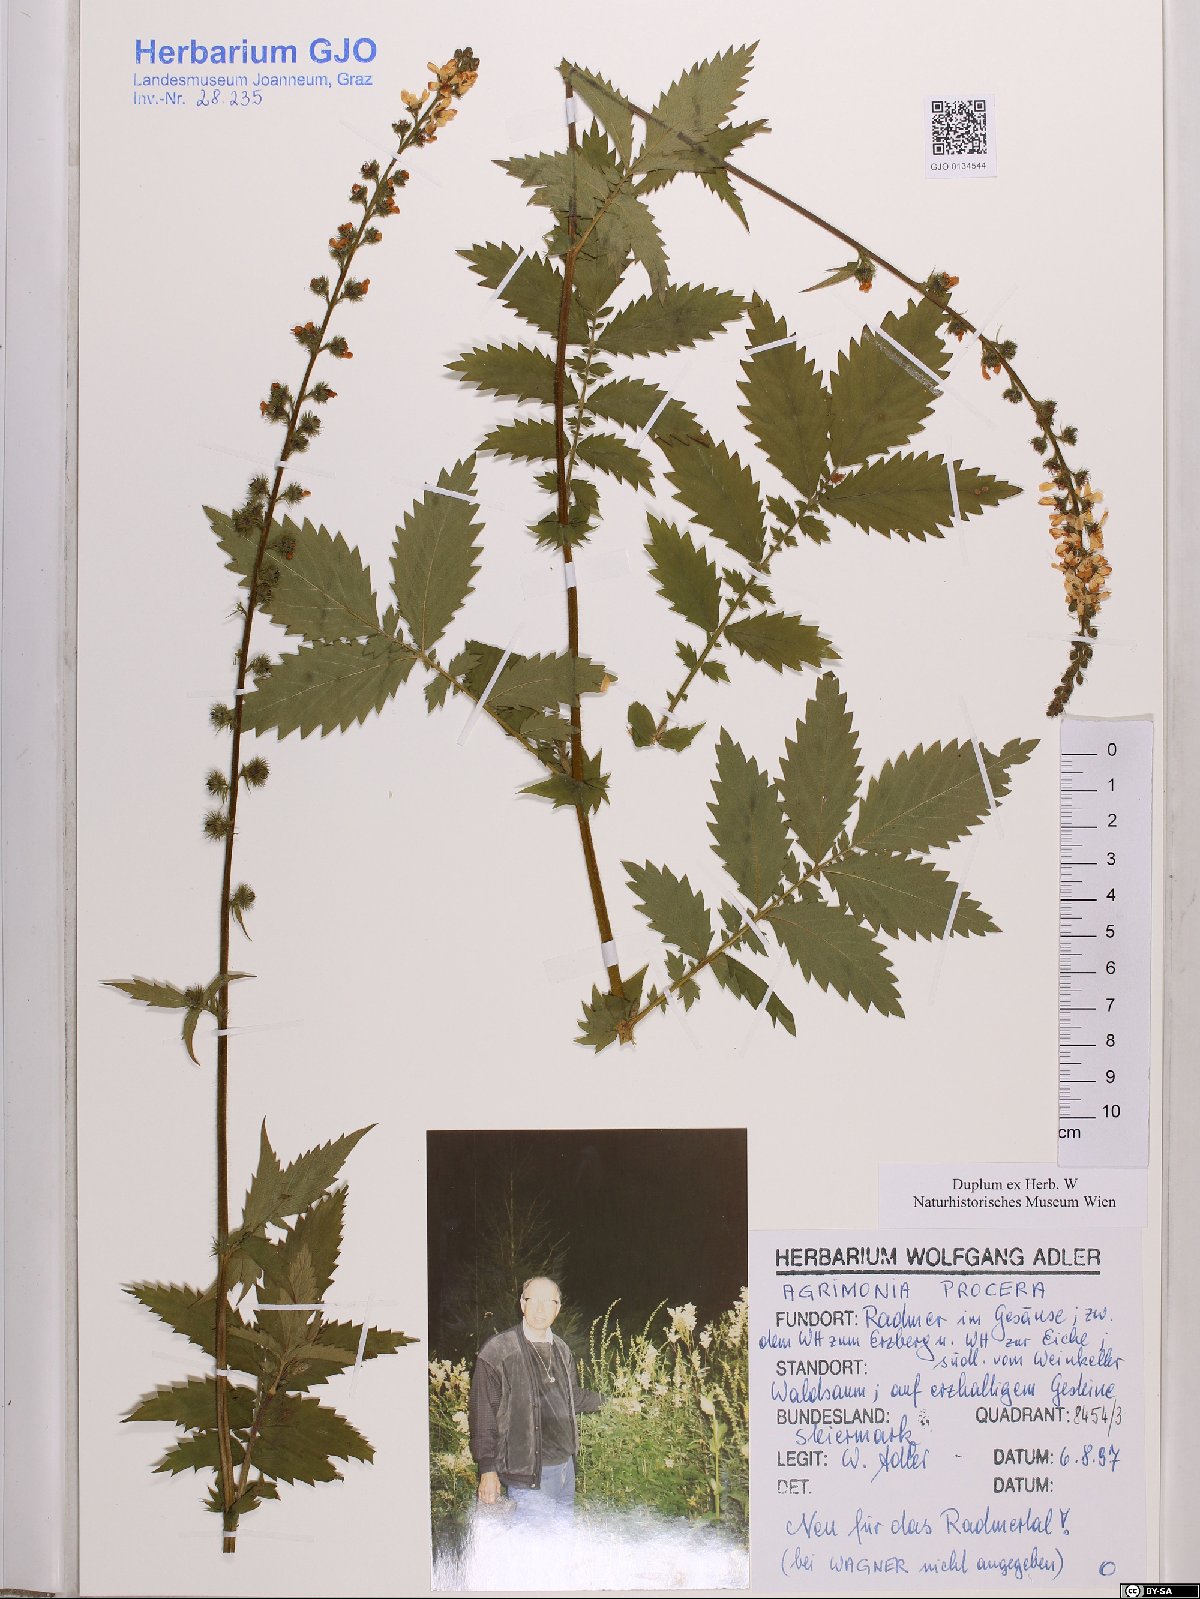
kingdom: Plantae
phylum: Tracheophyta
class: Magnoliopsida
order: Rosales
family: Rosaceae
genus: Agrimonia
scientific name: Agrimonia procera
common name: Fragrant agrimony
